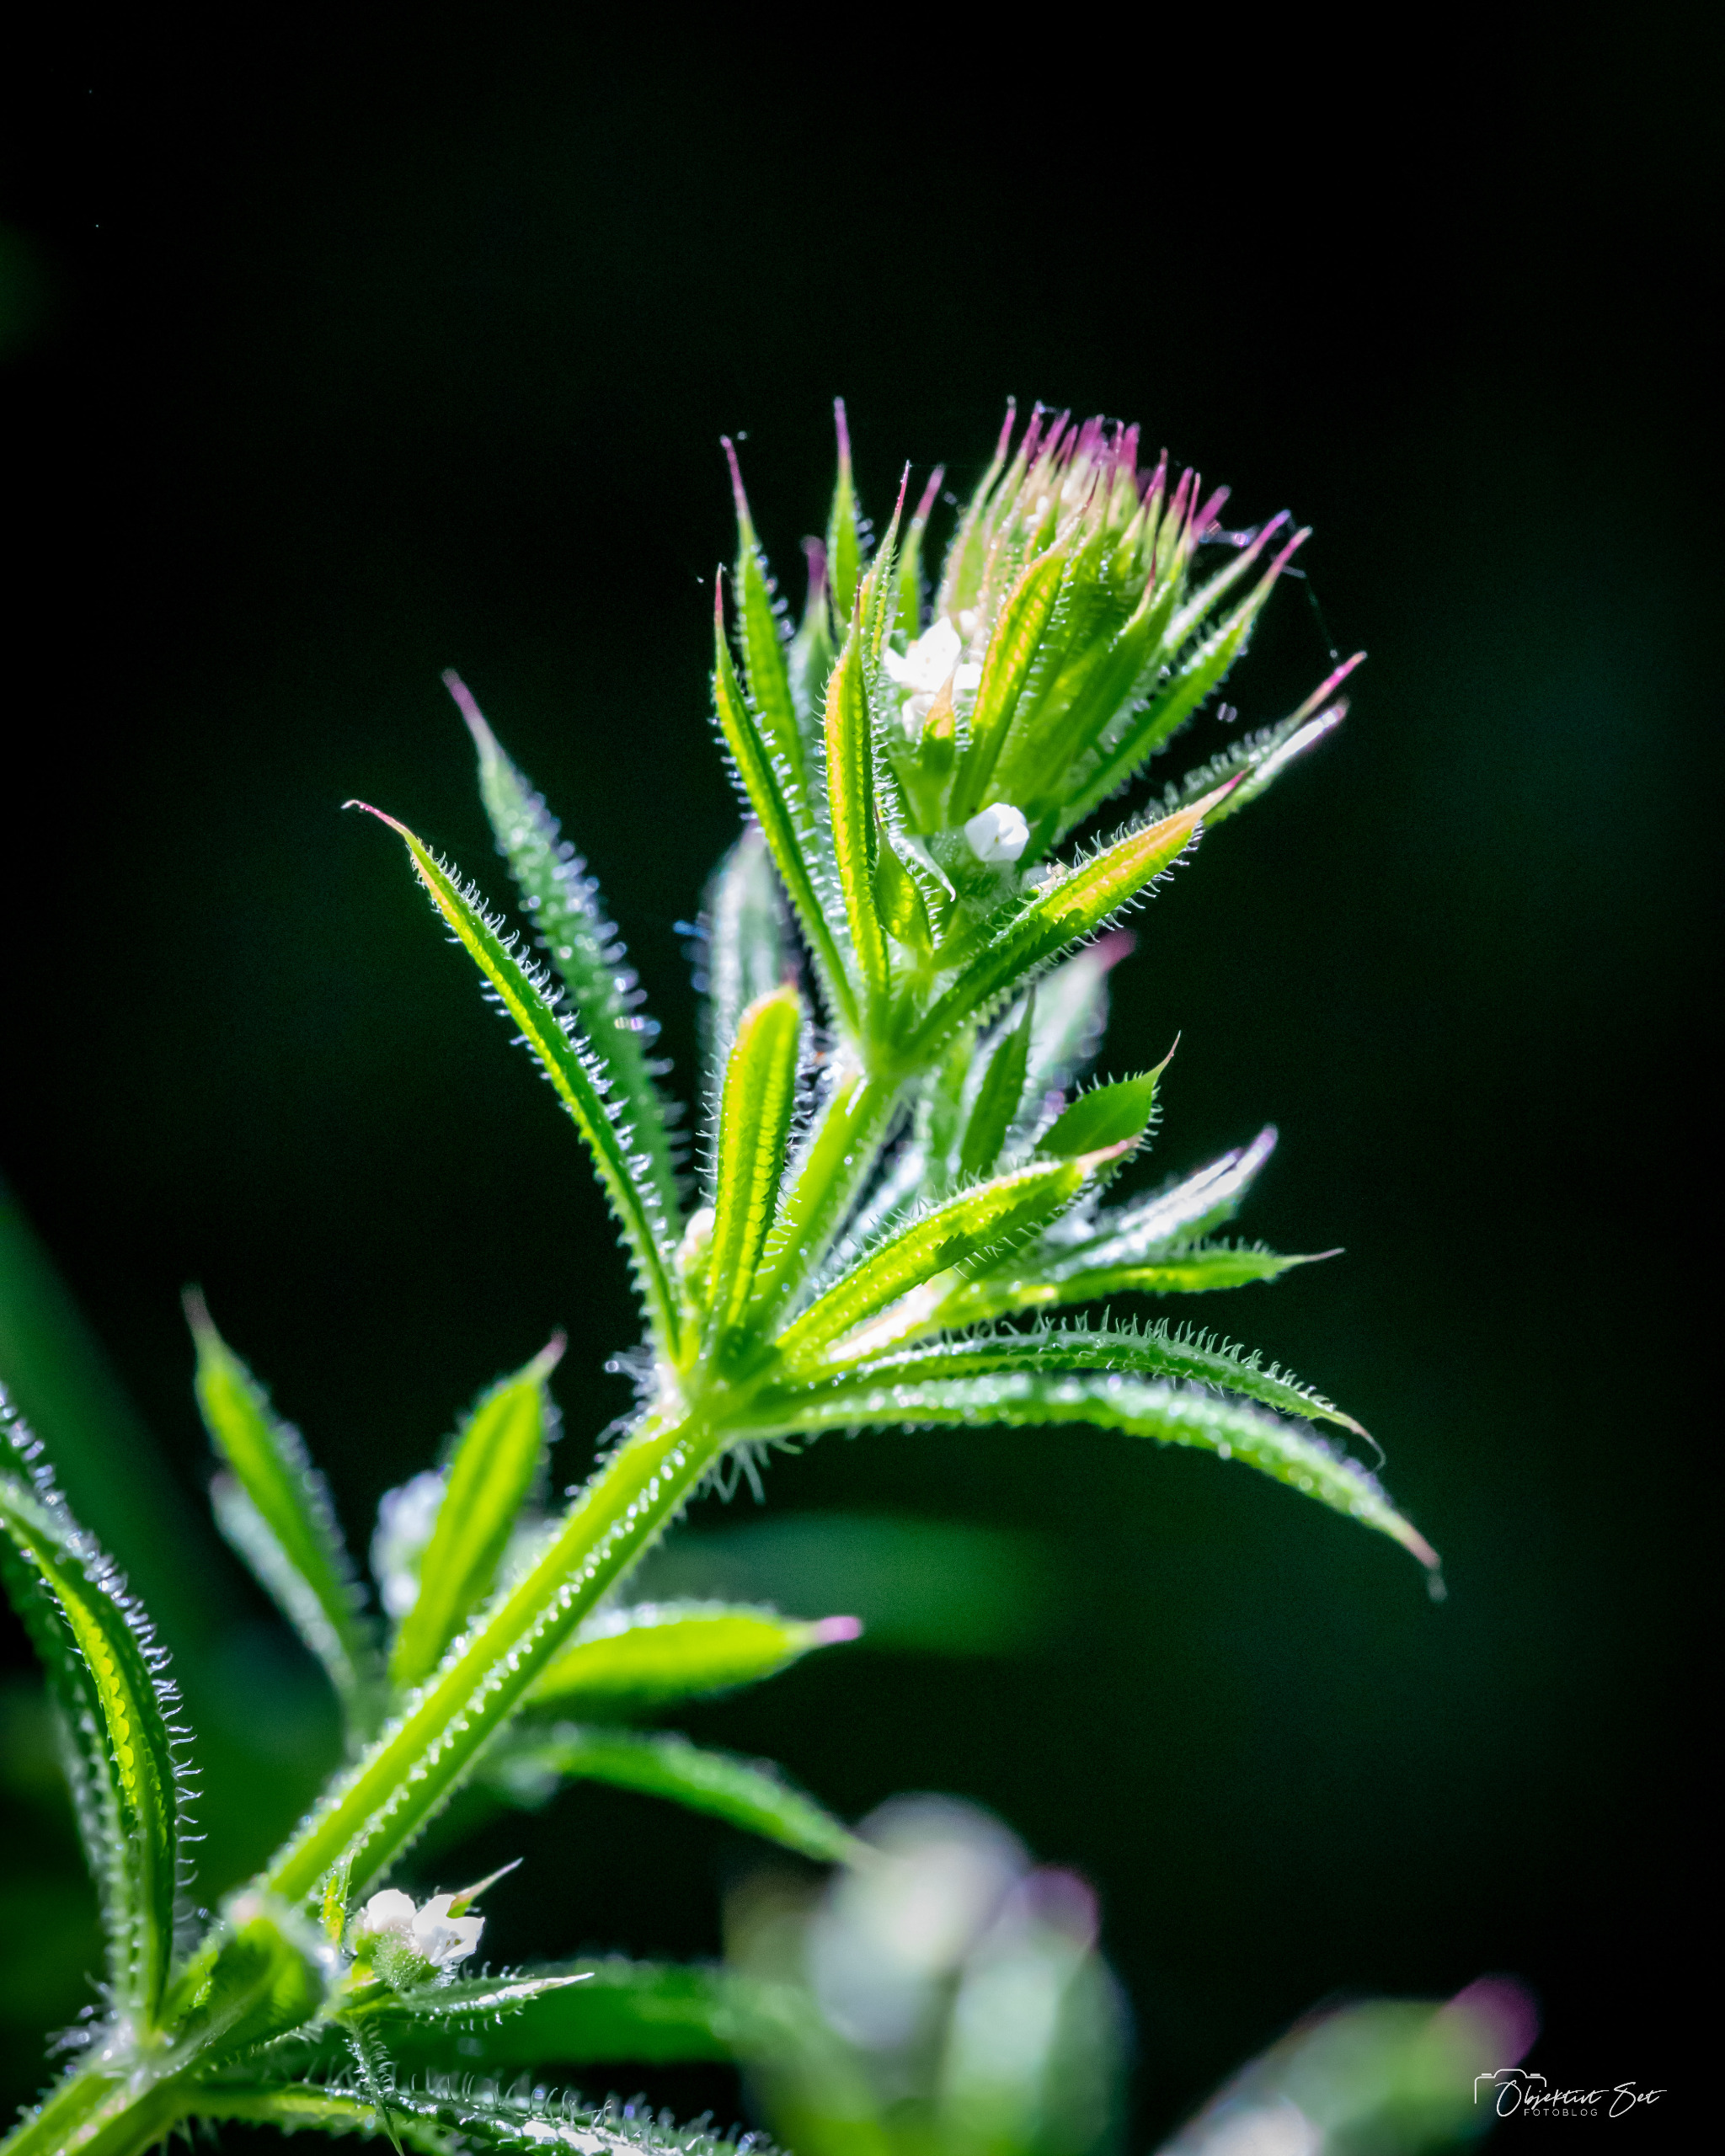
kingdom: Plantae
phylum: Tracheophyta
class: Magnoliopsida
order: Gentianales
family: Rubiaceae
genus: Galium
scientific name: Galium aparine
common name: Burre-snerre
